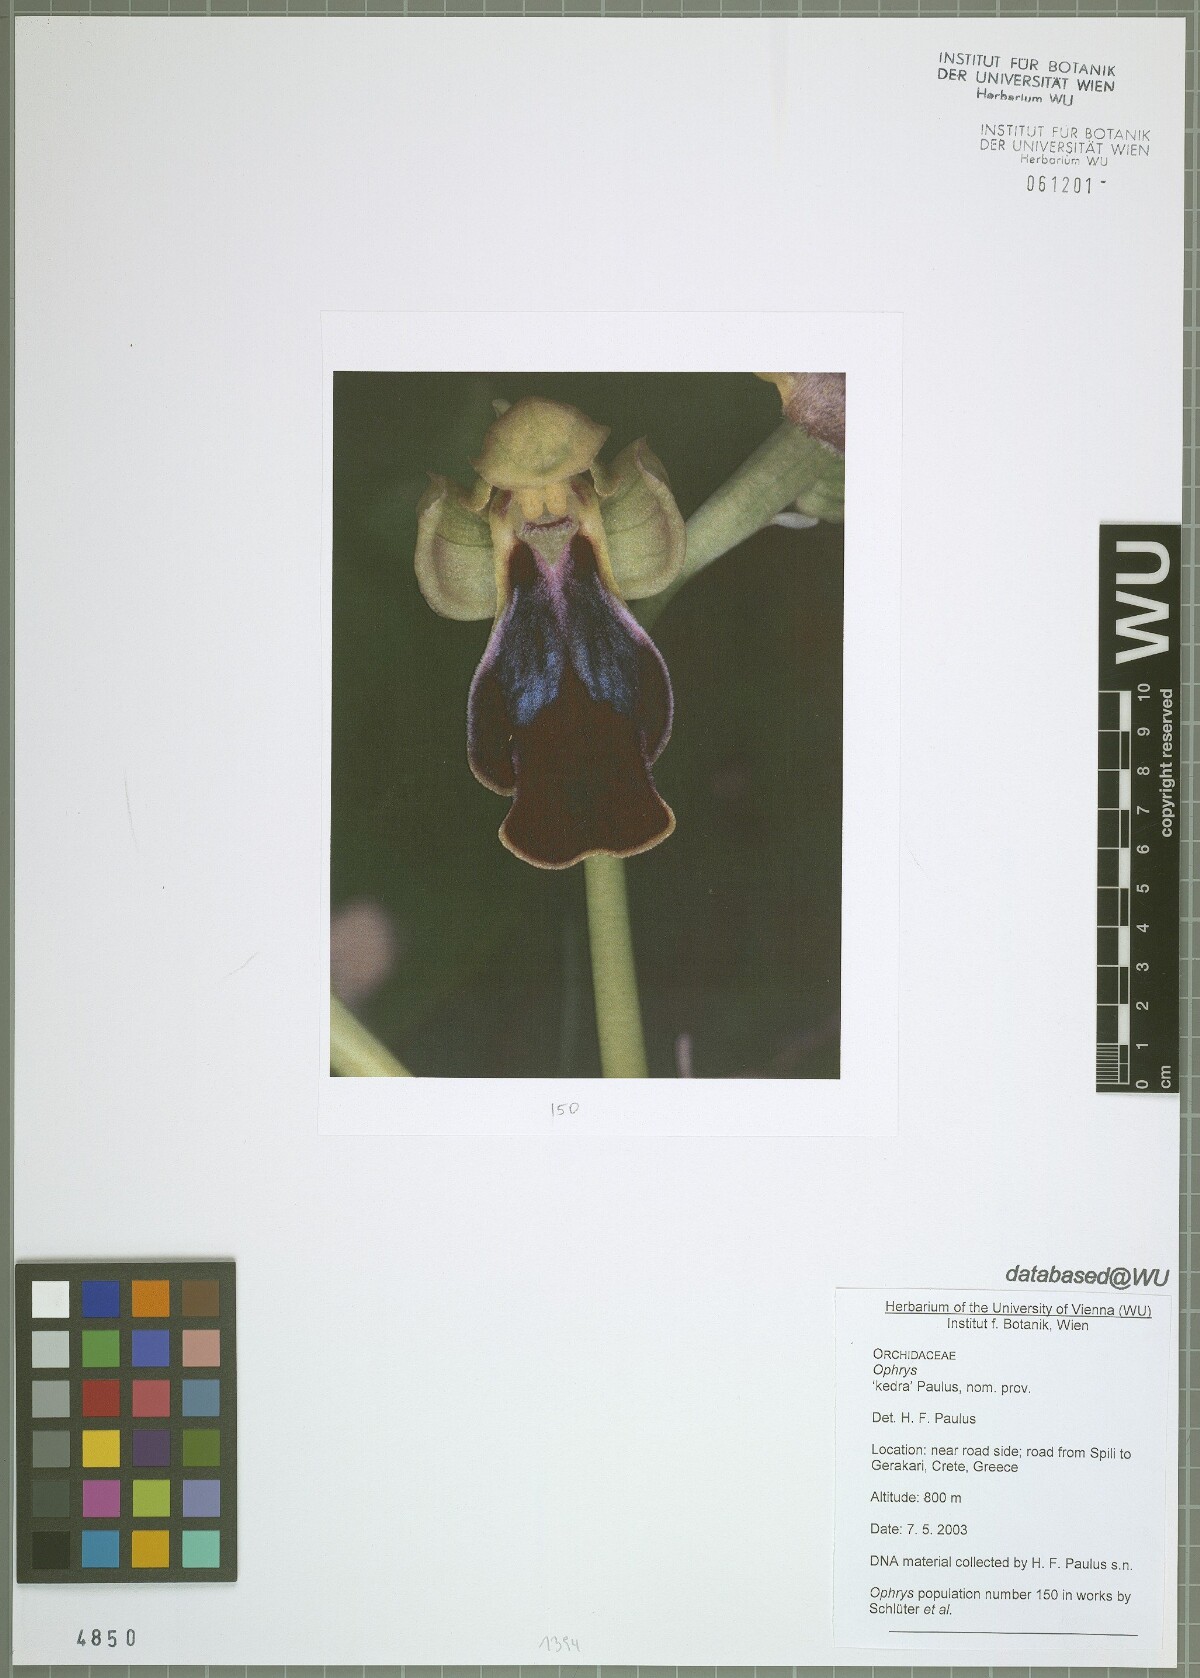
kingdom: Plantae
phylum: Tracheophyta
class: Liliopsida
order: Asparagales
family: Orchidaceae
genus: Ophrys
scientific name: Ophrys
